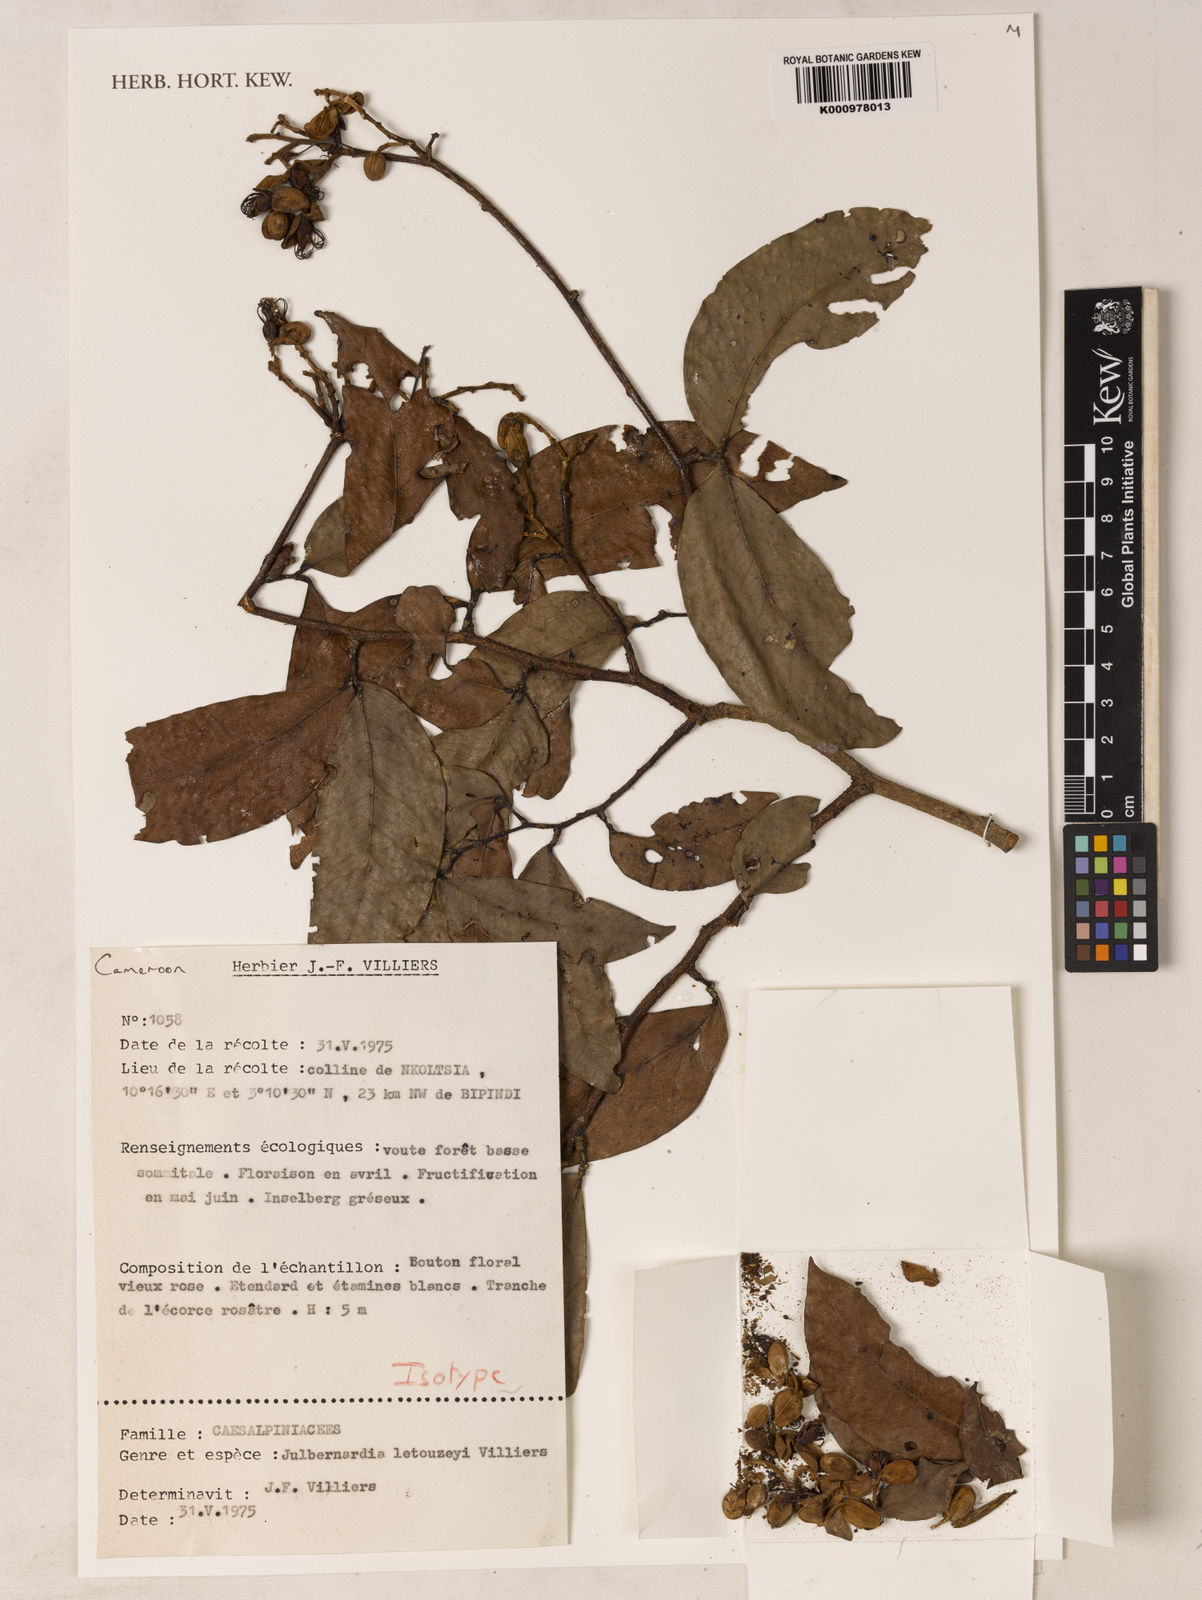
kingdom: Plantae
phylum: Tracheophyta
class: Magnoliopsida
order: Fabales
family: Fabaceae
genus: Julbernardia
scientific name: Julbernardia letouzeyi
